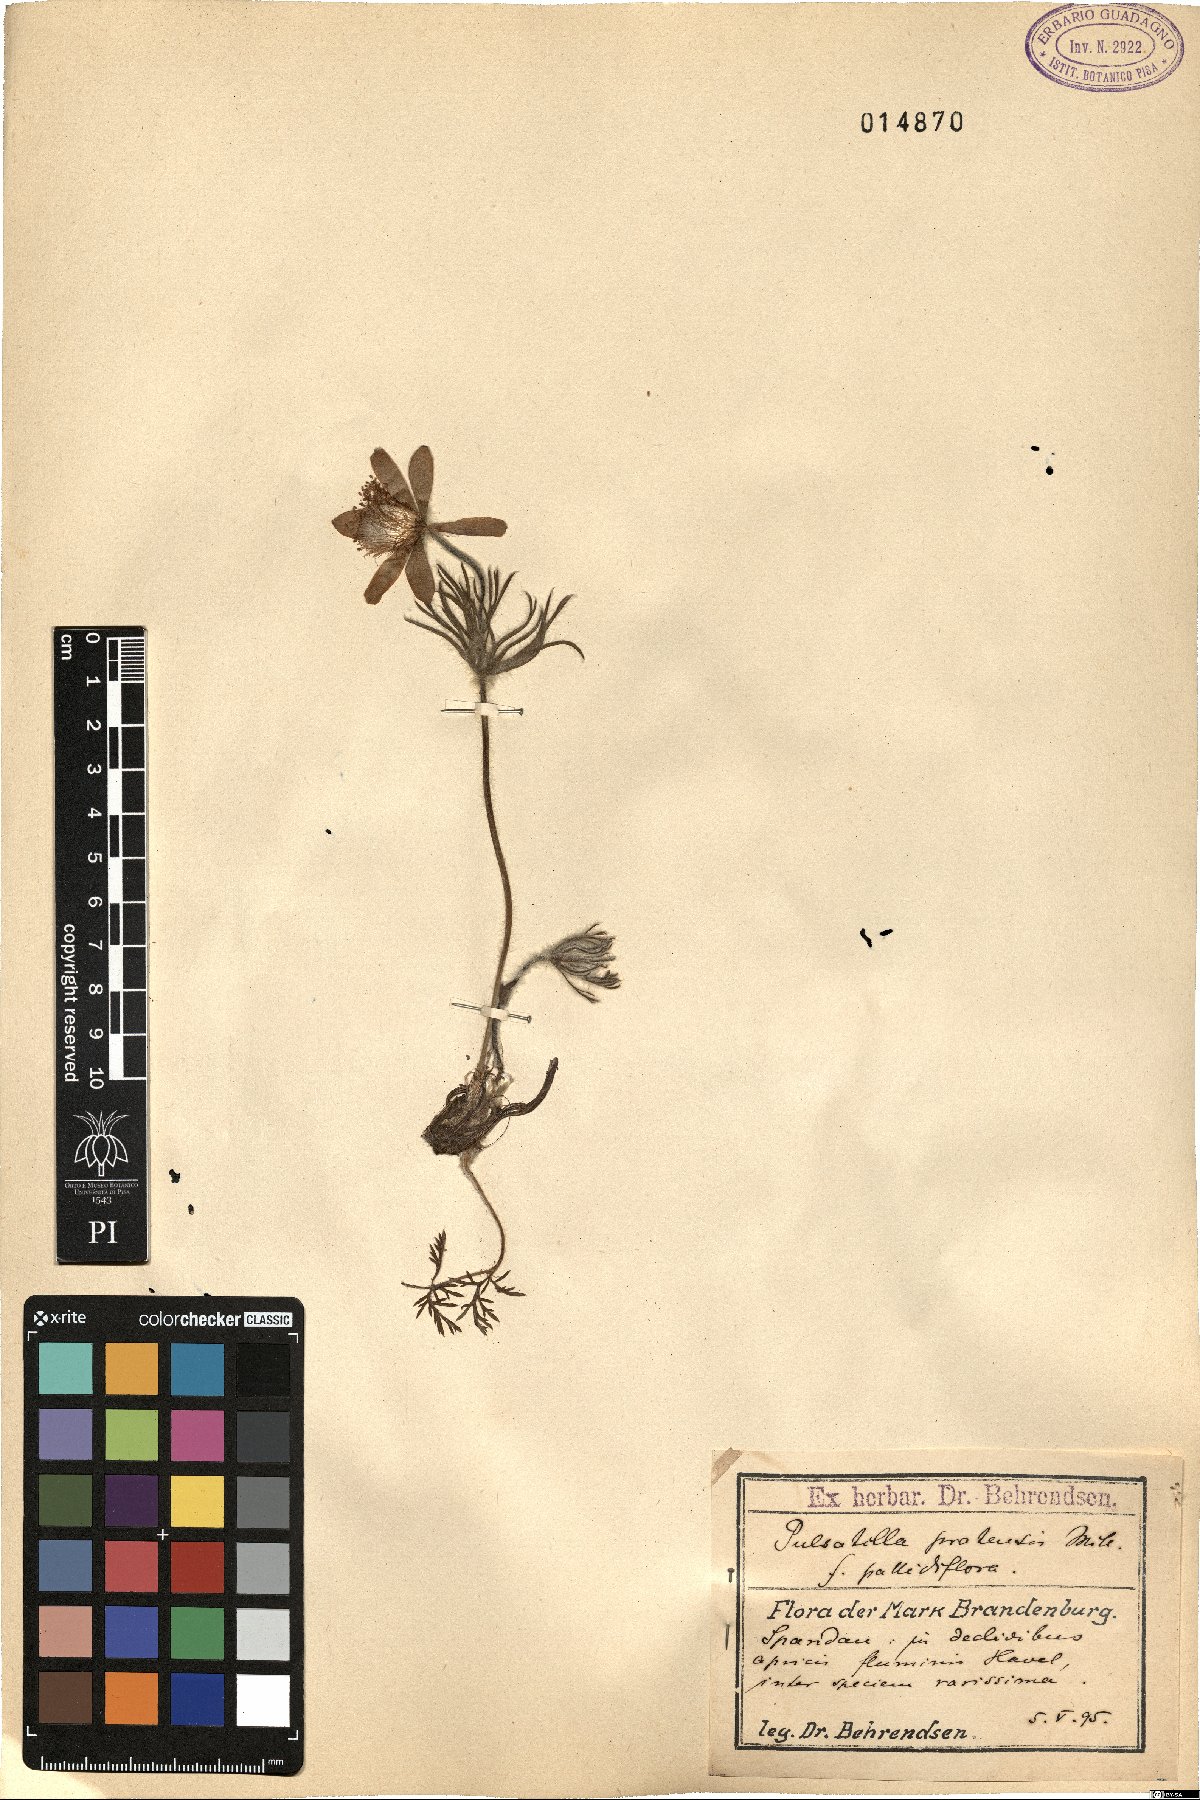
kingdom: Plantae
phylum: Tracheophyta
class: Magnoliopsida
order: Ranunculales
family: Ranunculaceae
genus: Pulsatilla
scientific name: Pulsatilla pratensis
